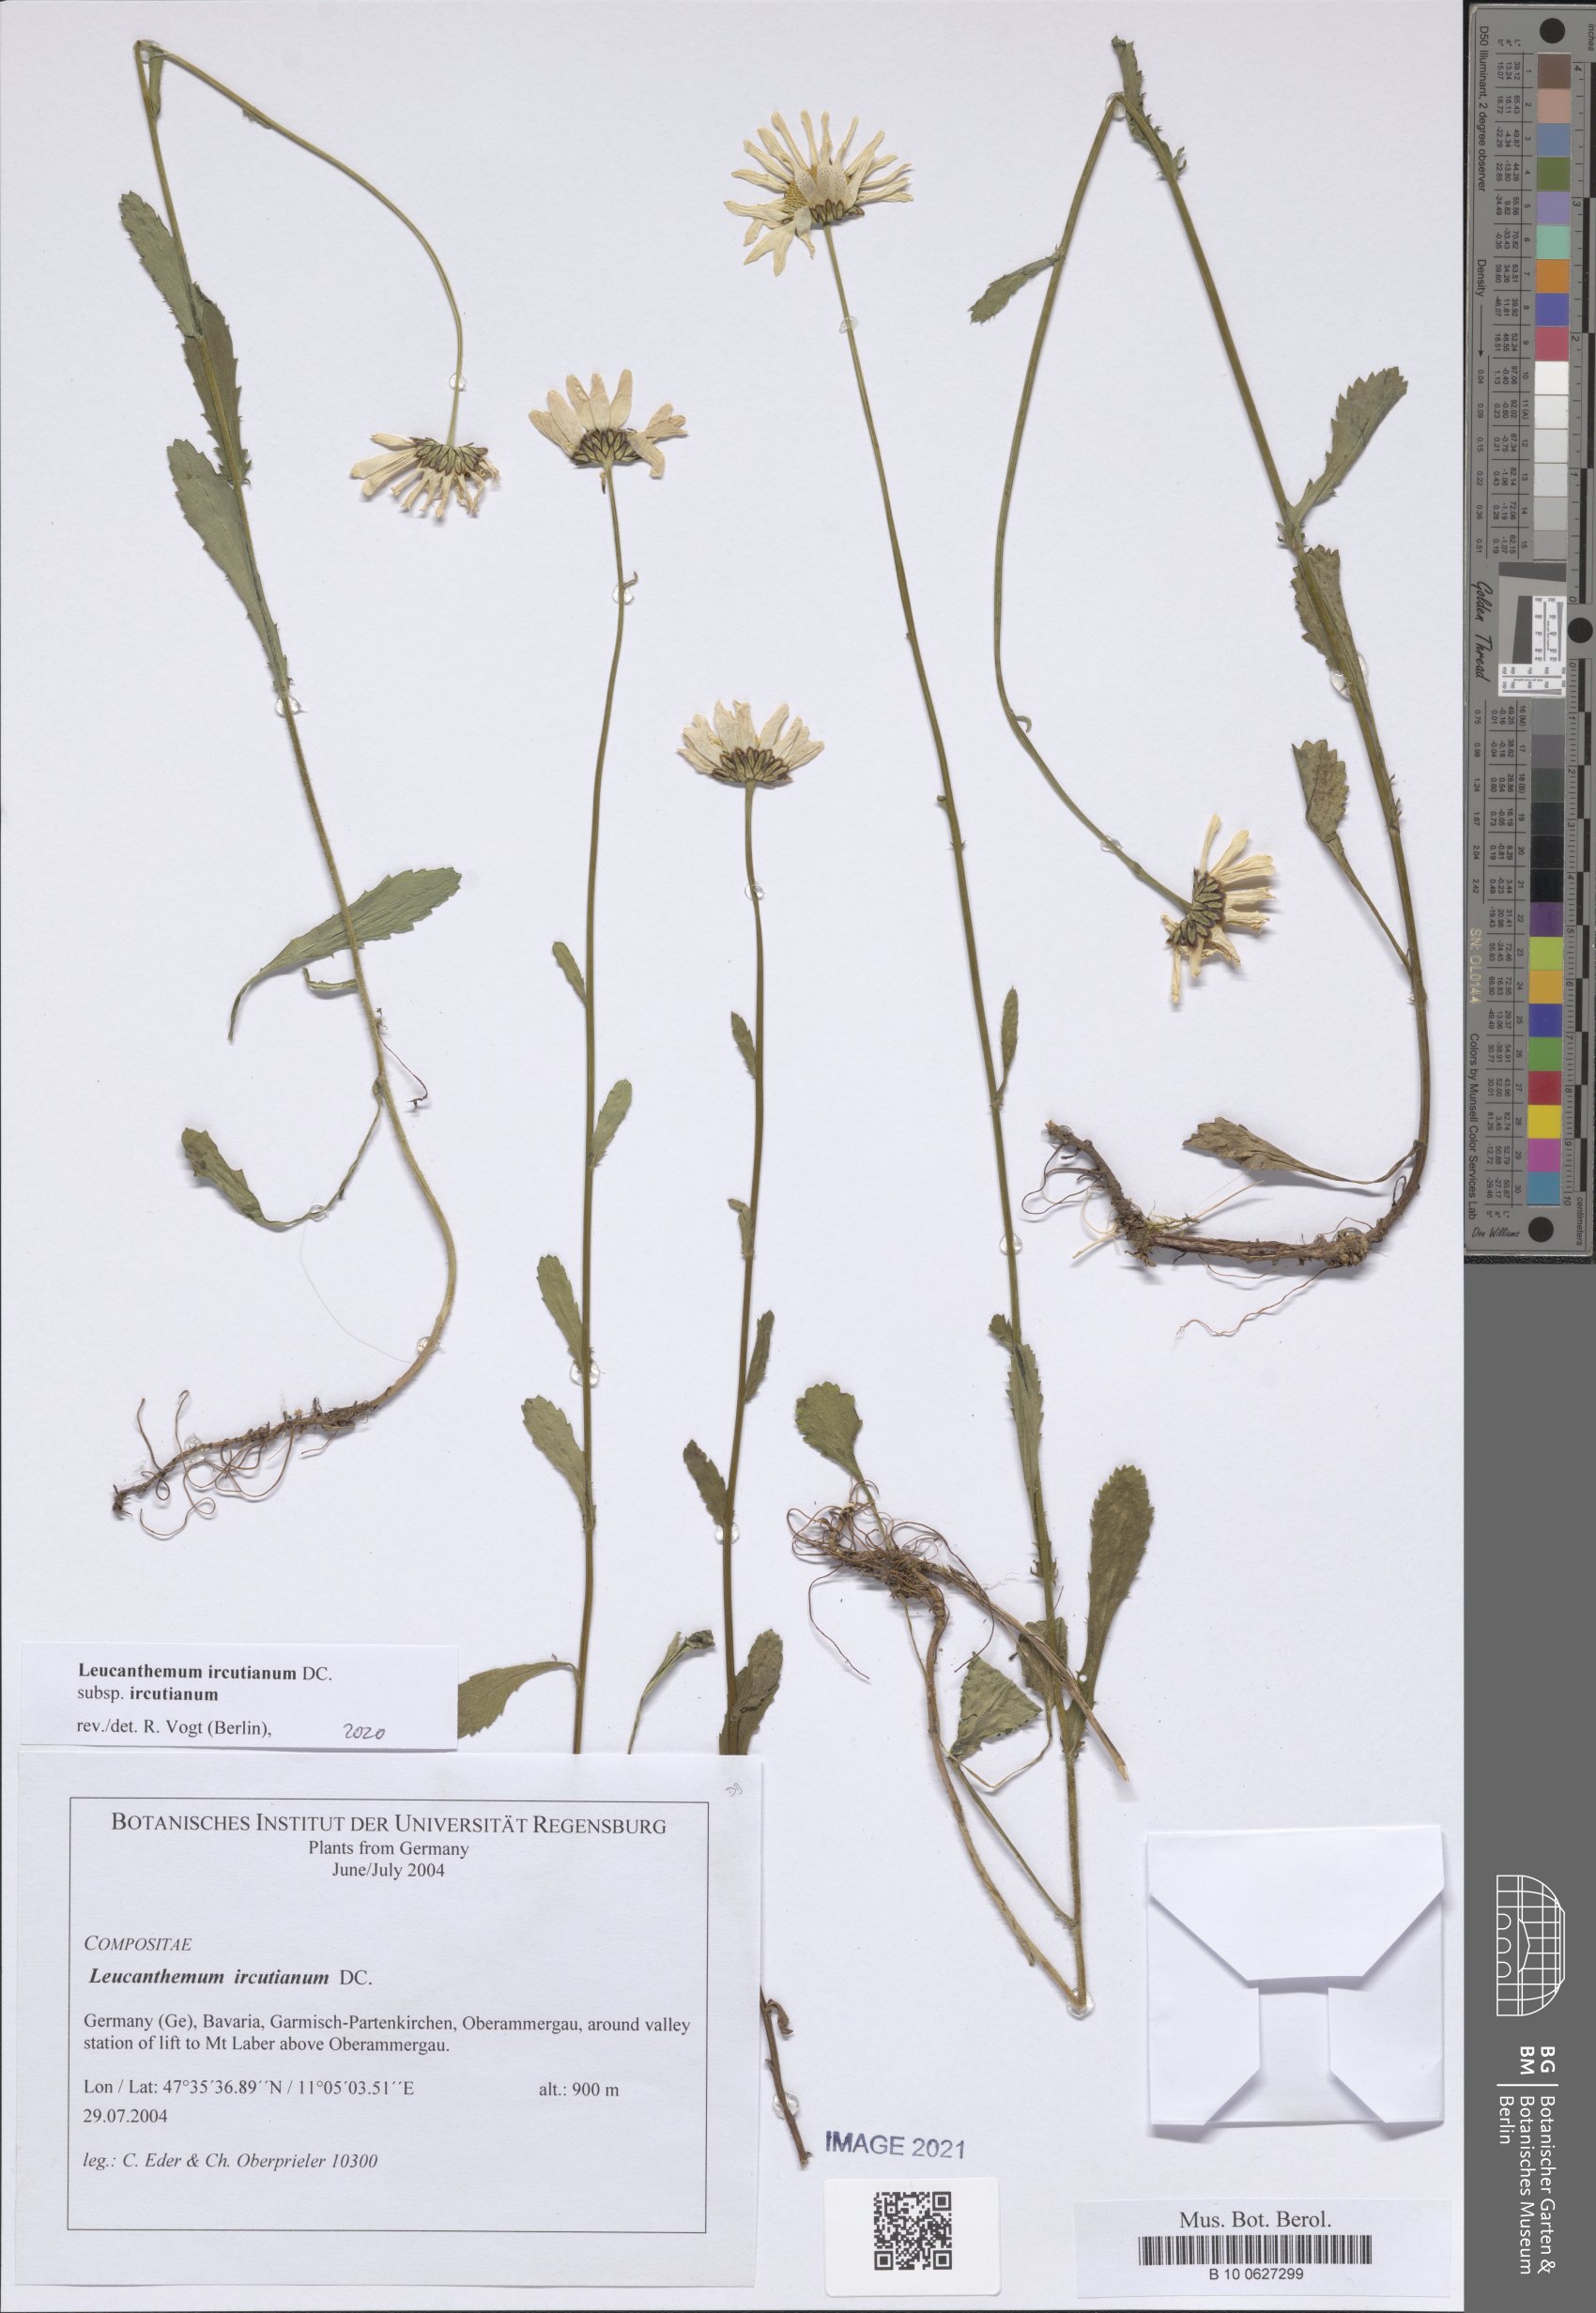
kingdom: Plantae
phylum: Tracheophyta
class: Magnoliopsida
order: Asterales
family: Asteraceae
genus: Leucanthemum
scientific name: Leucanthemum ircutianum
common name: Daisy
